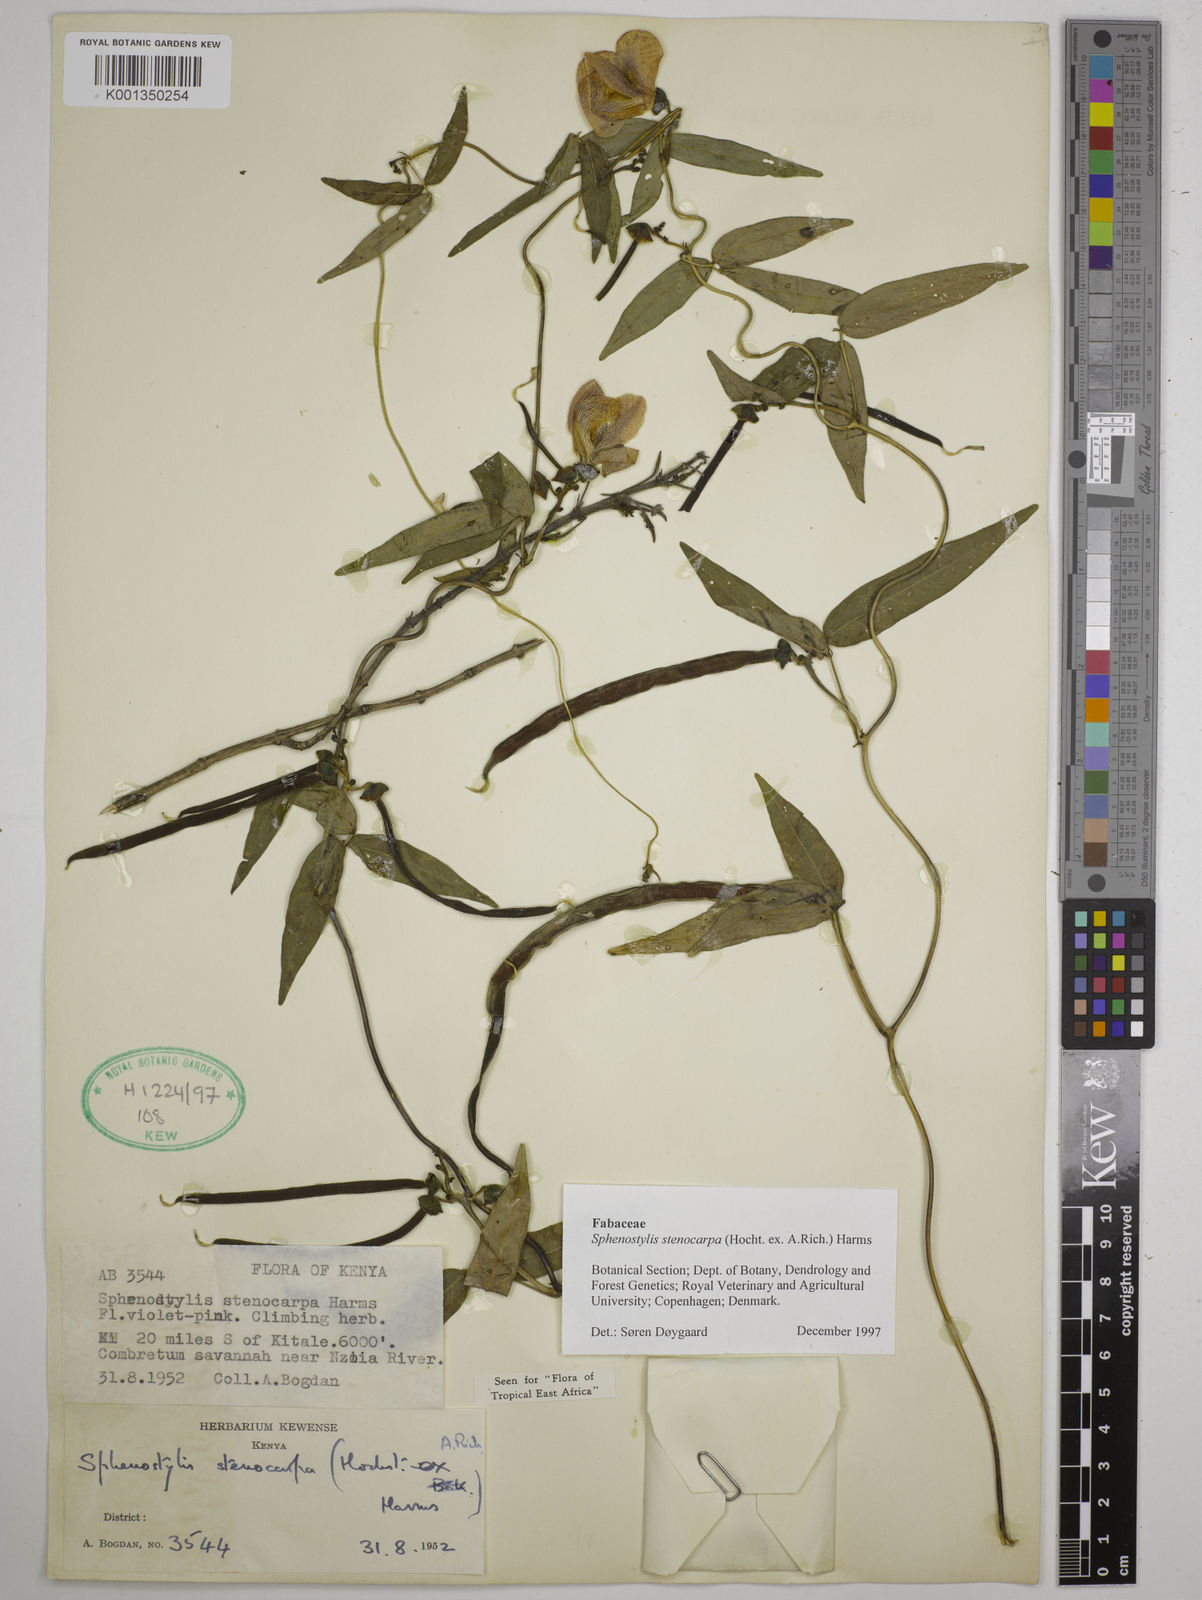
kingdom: Plantae
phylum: Tracheophyta
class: Magnoliopsida
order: Fabales
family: Fabaceae
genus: Sphenostylis
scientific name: Sphenostylis stenocarpa
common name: Yam-pea
